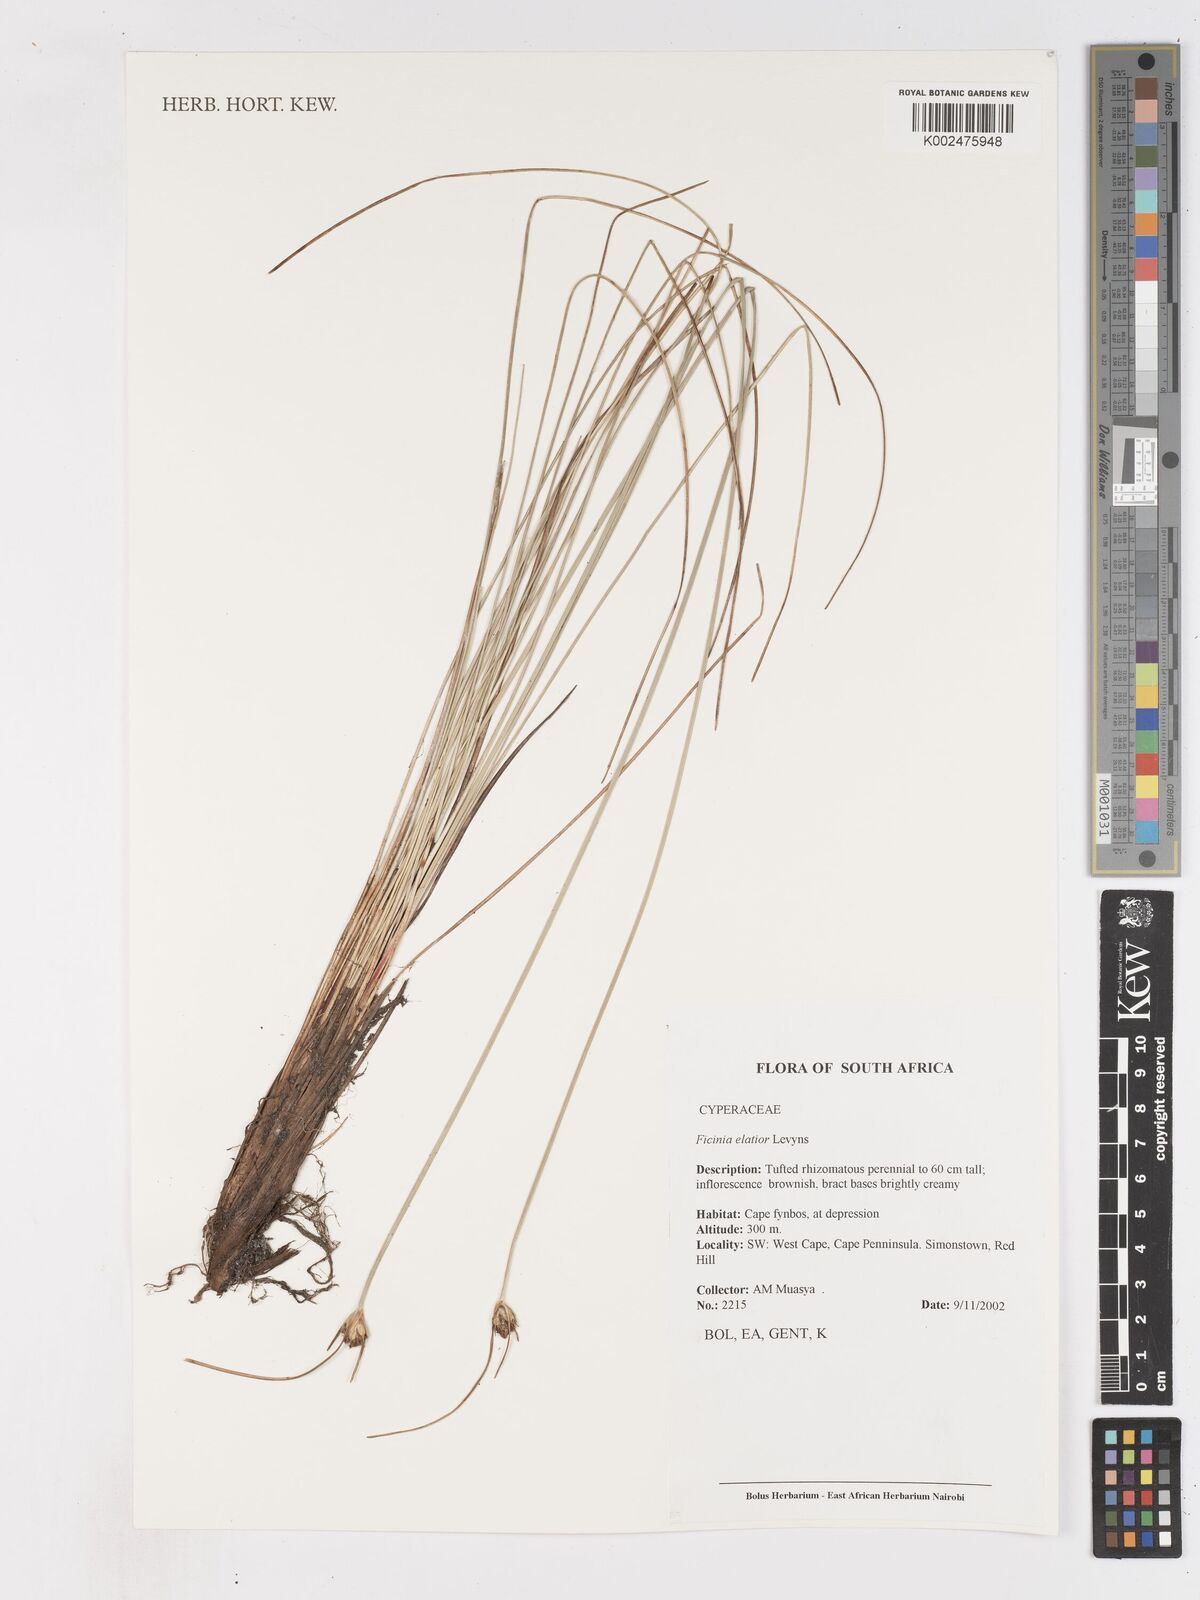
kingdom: Plantae
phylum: Tracheophyta
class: Liliopsida
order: Poales
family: Cyperaceae
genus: Ficinia
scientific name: Ficinia elatior
